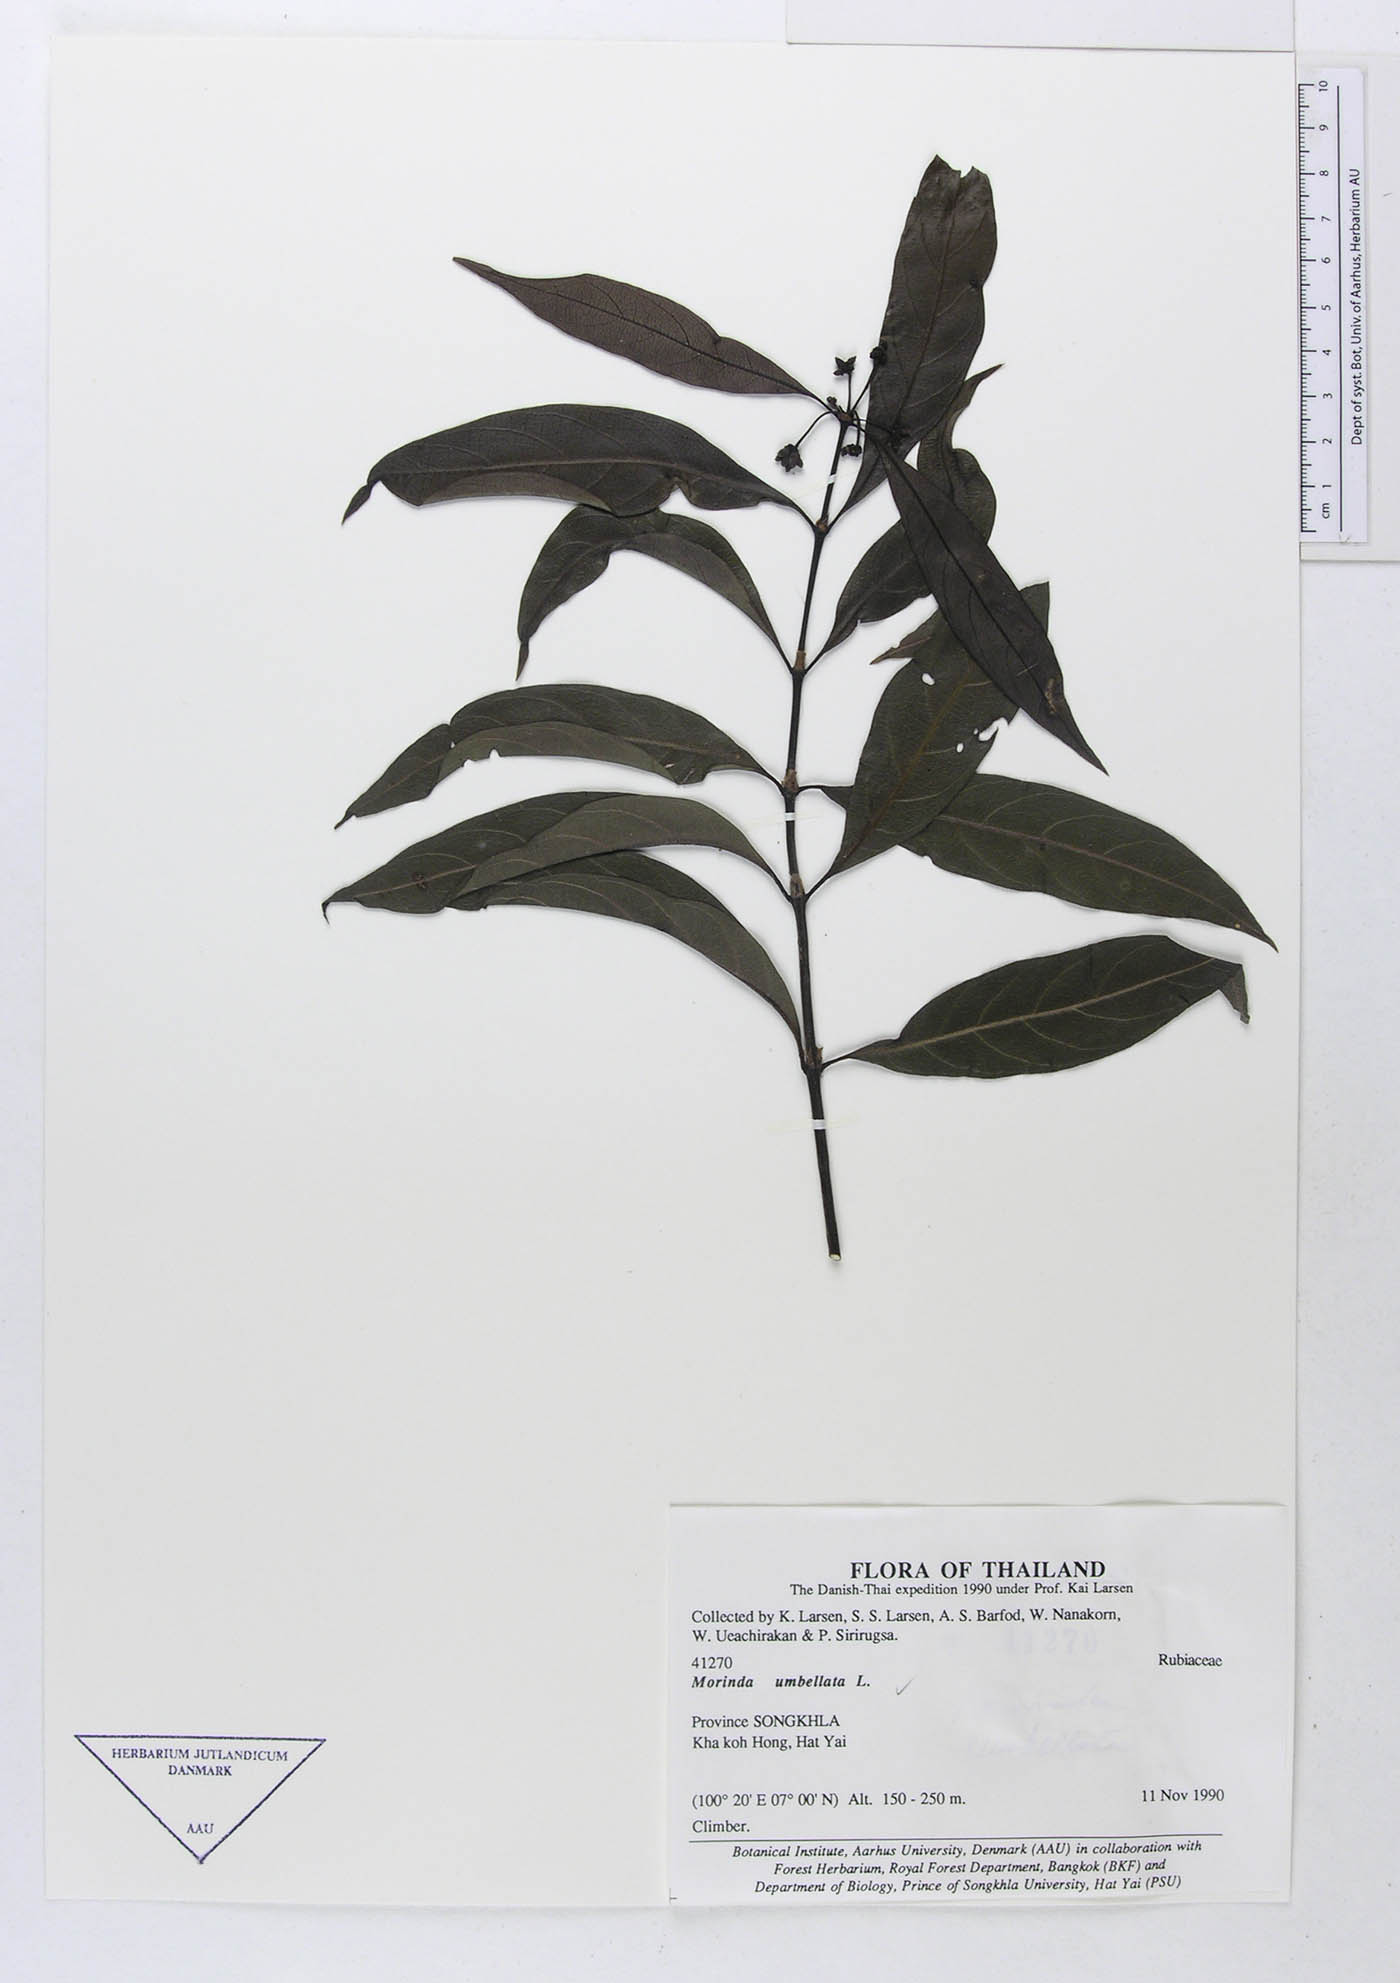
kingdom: Plantae
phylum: Tracheophyta
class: Magnoliopsida
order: Gentianales
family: Rubiaceae
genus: Gynochthodes
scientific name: Gynochthodes umbellata
